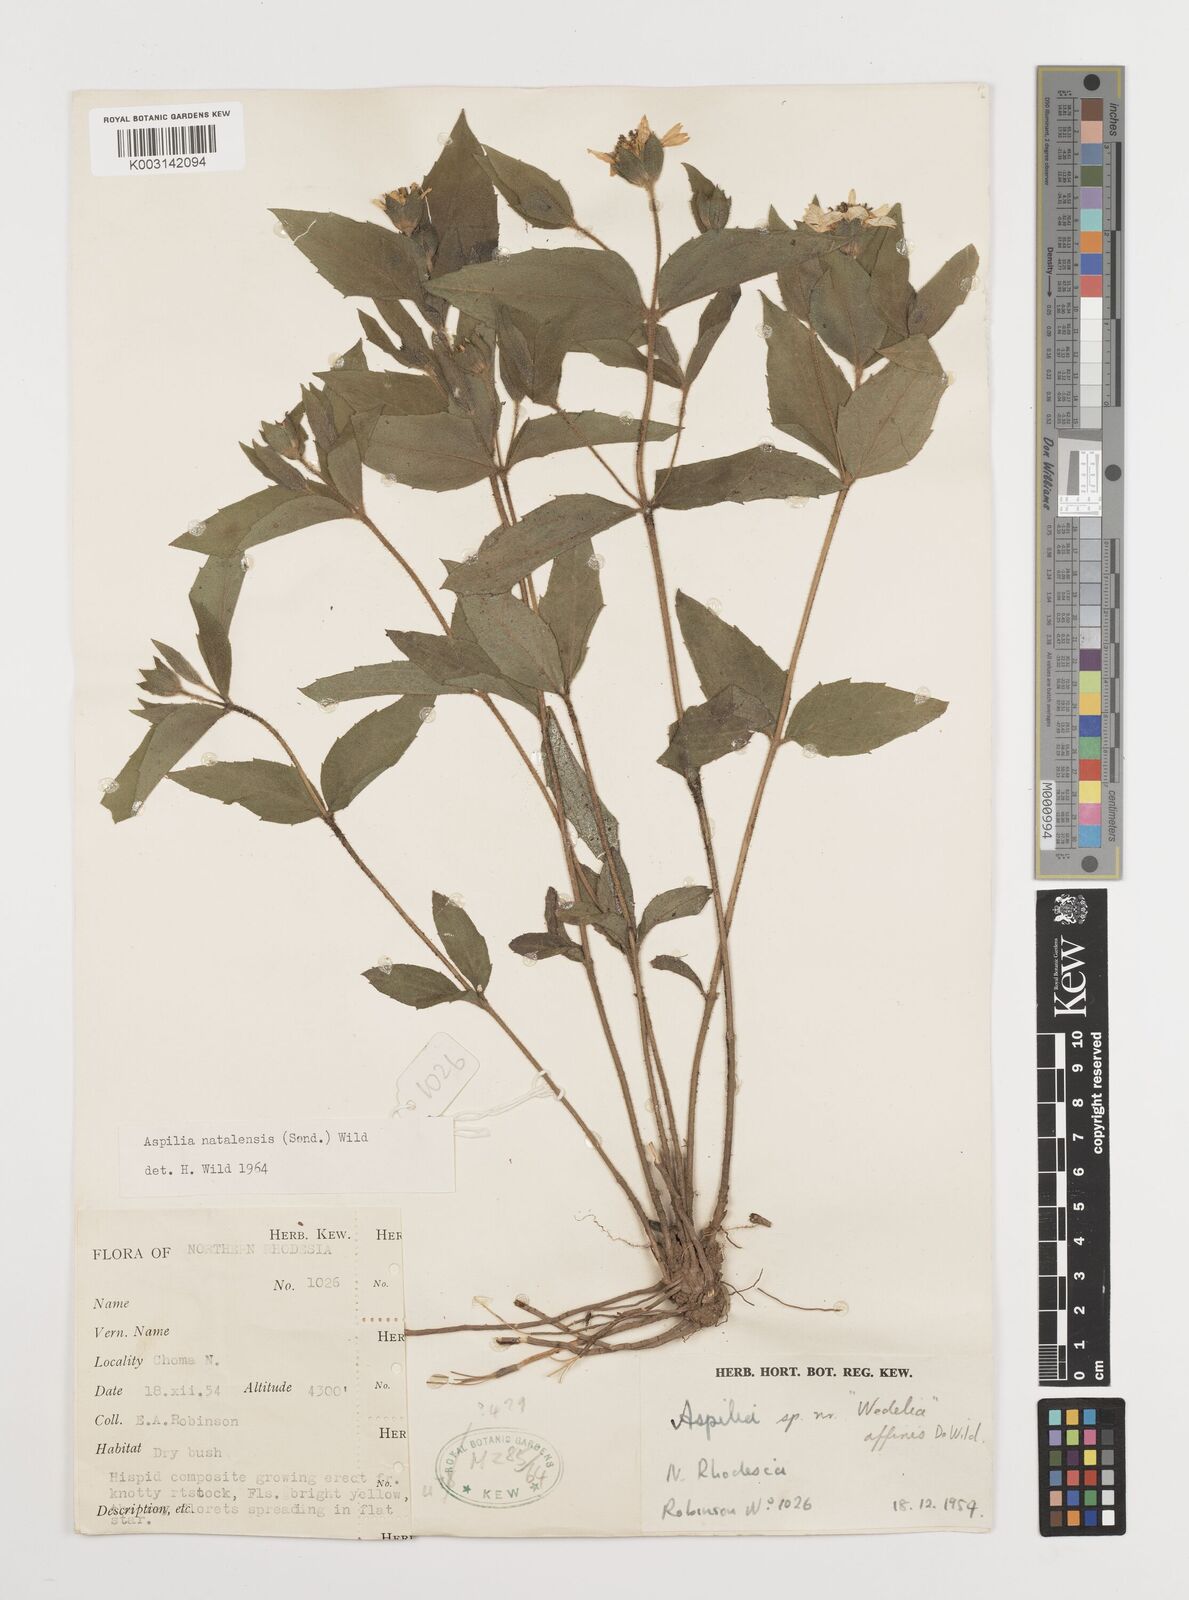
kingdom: Plantae
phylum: Tracheophyta
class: Magnoliopsida
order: Asterales
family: Asteraceae
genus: Aspilia
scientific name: Aspilia angolensis
